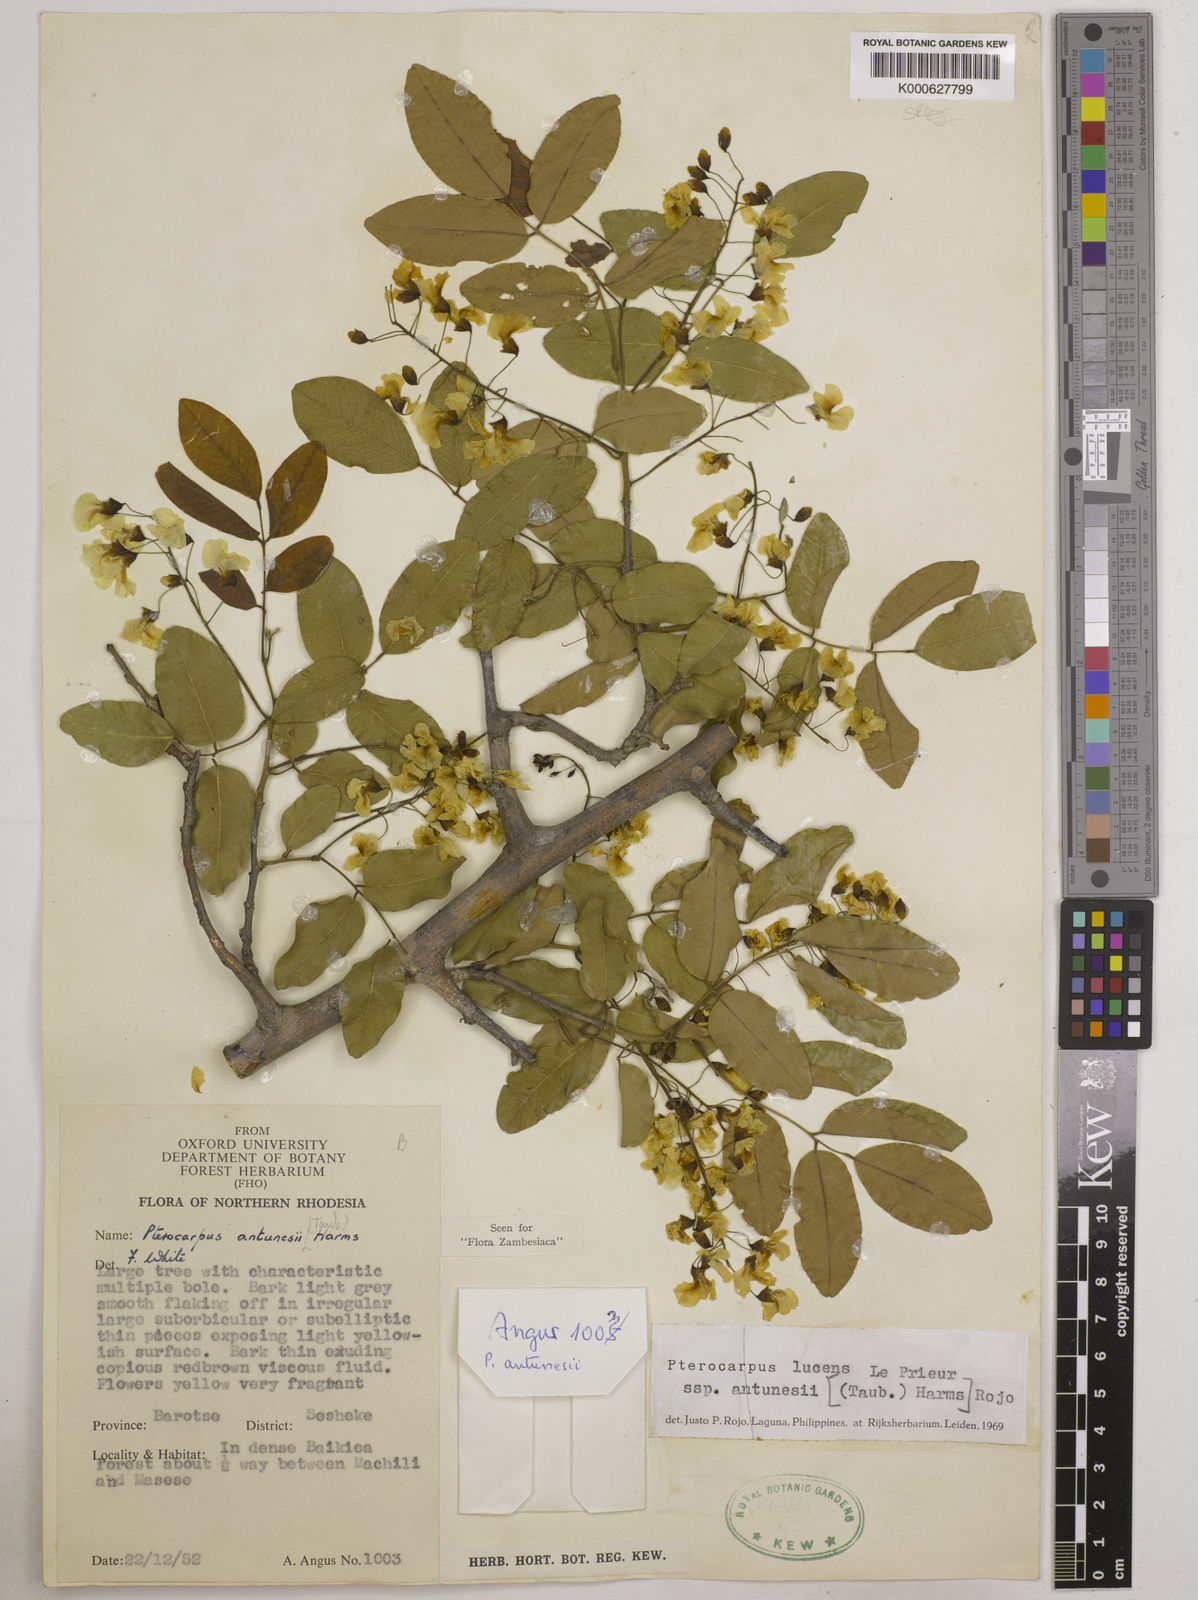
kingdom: Plantae
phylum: Tracheophyta
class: Magnoliopsida
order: Fabales
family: Fabaceae
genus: Pterocarpus
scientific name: Pterocarpus lucens
